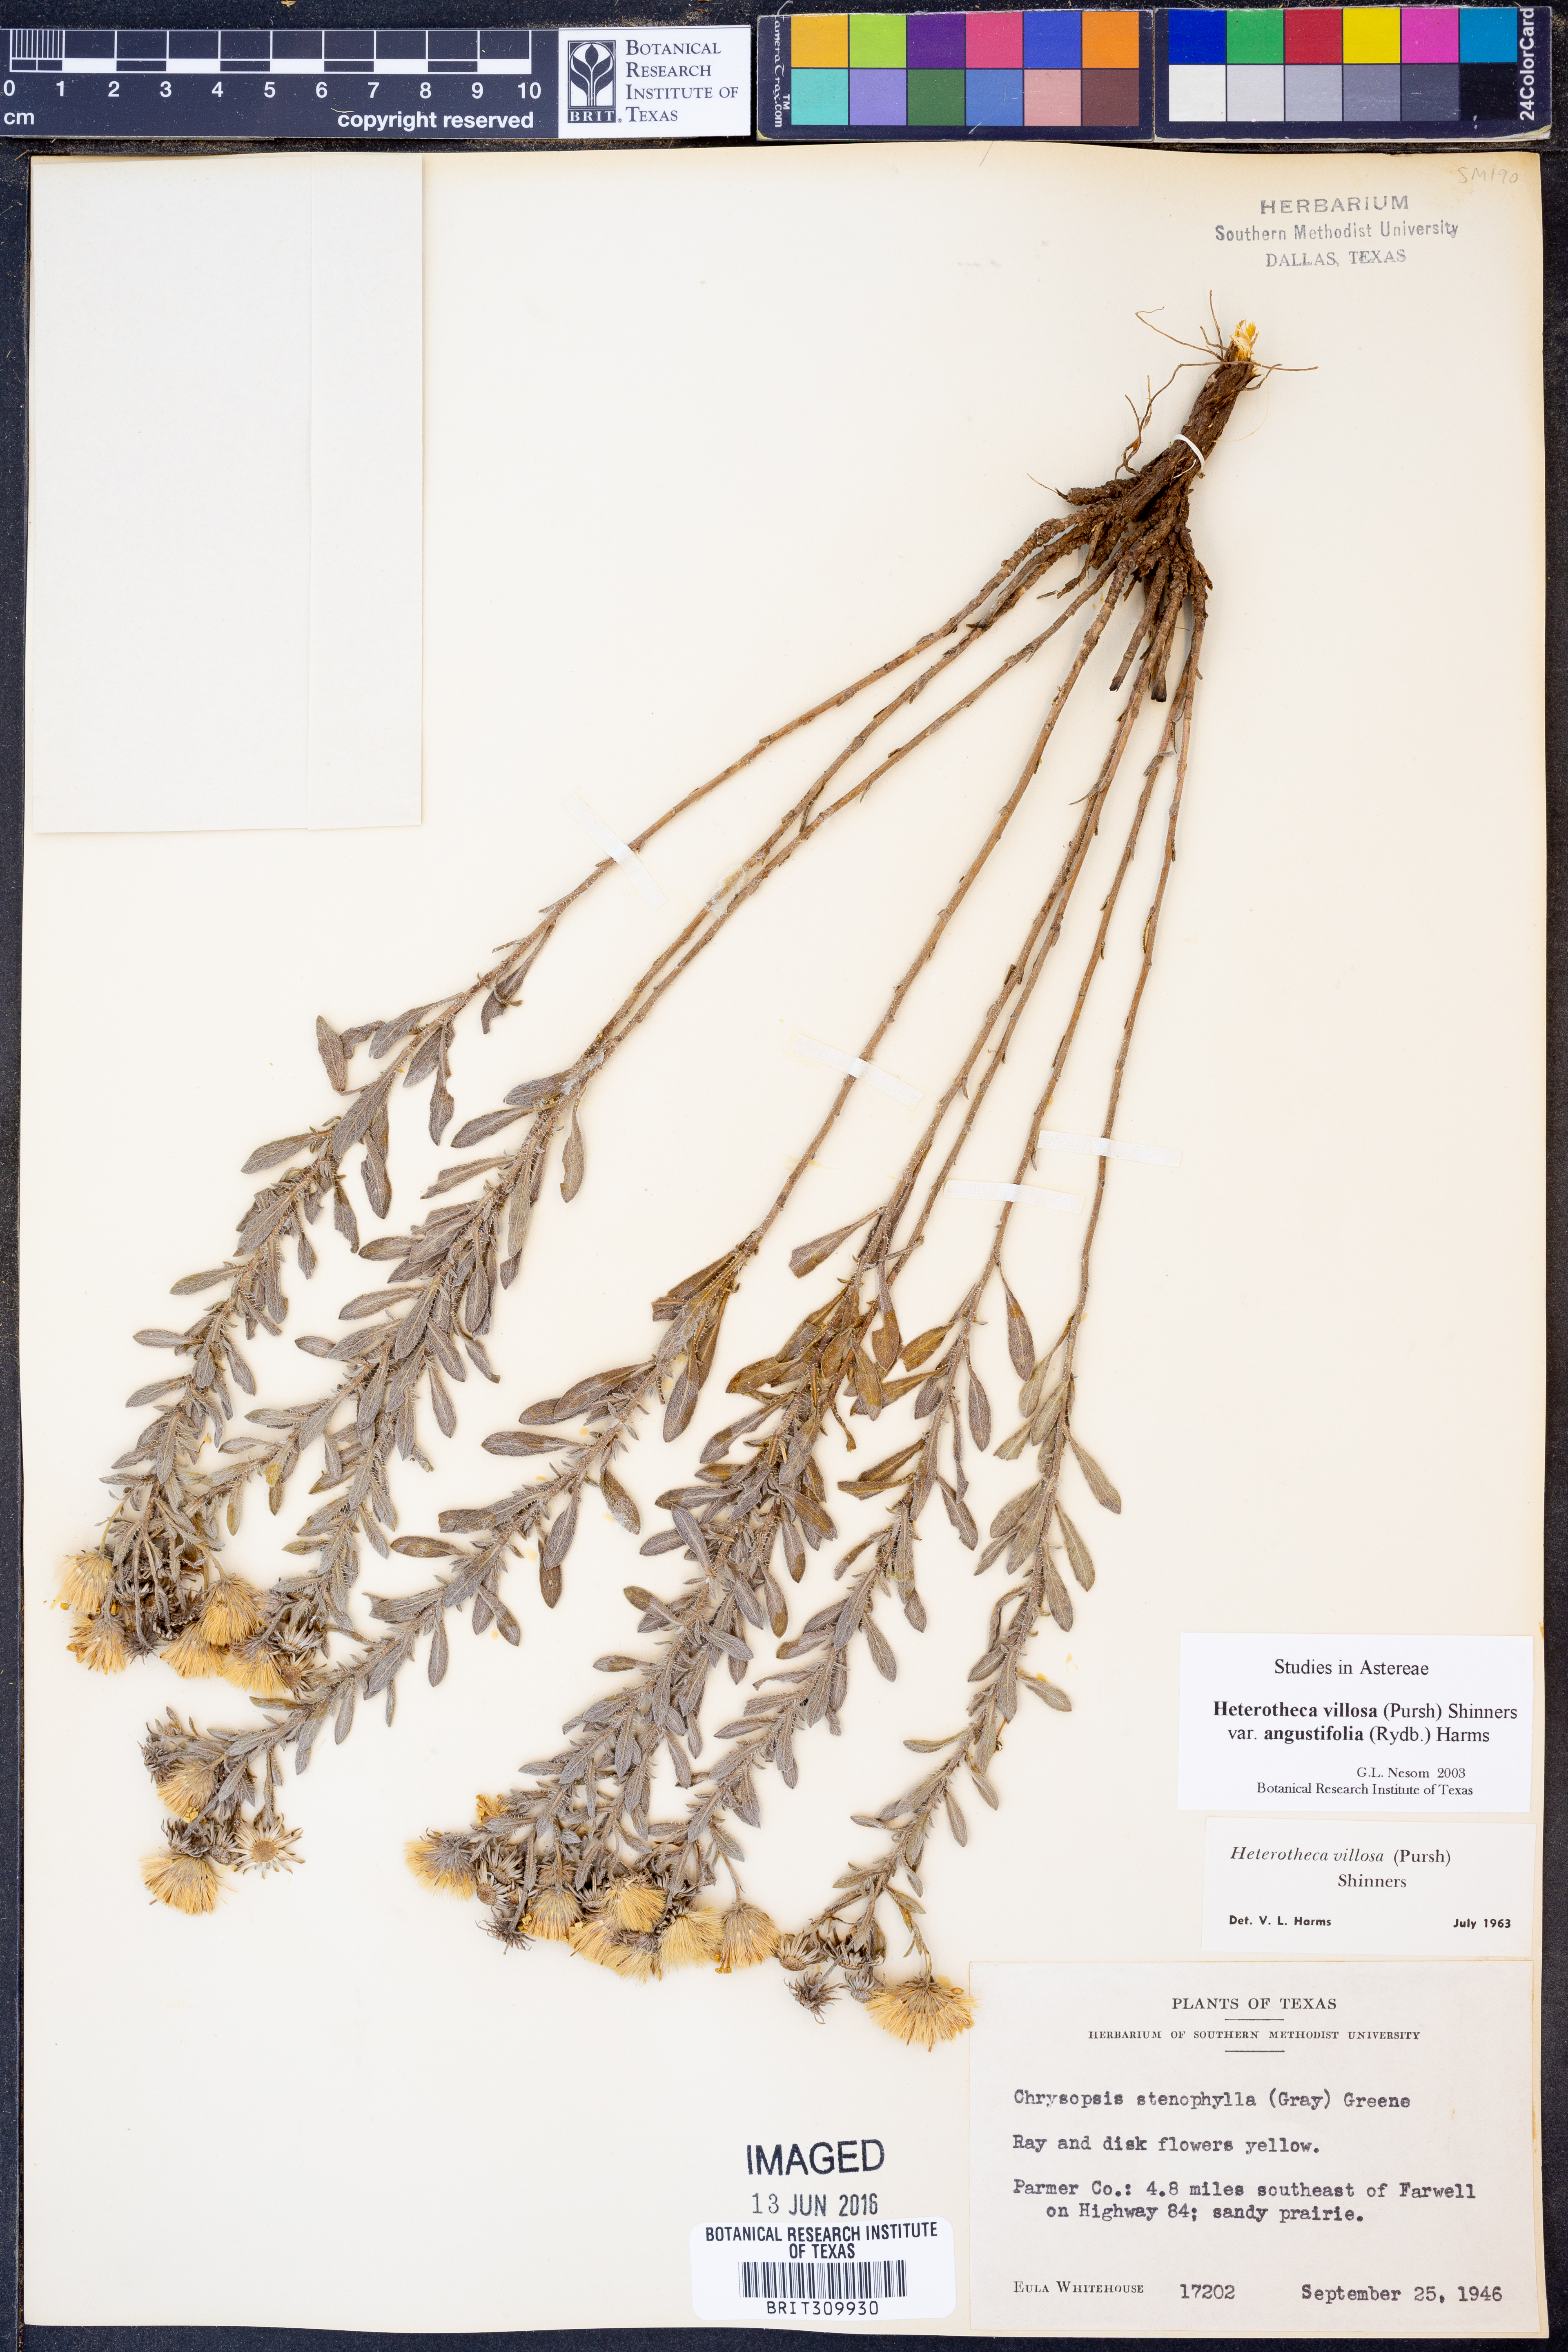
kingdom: Plantae
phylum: Tracheophyta
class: Magnoliopsida
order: Asterales
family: Asteraceae
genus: Heterotheca
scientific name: Heterotheca angustifolia
